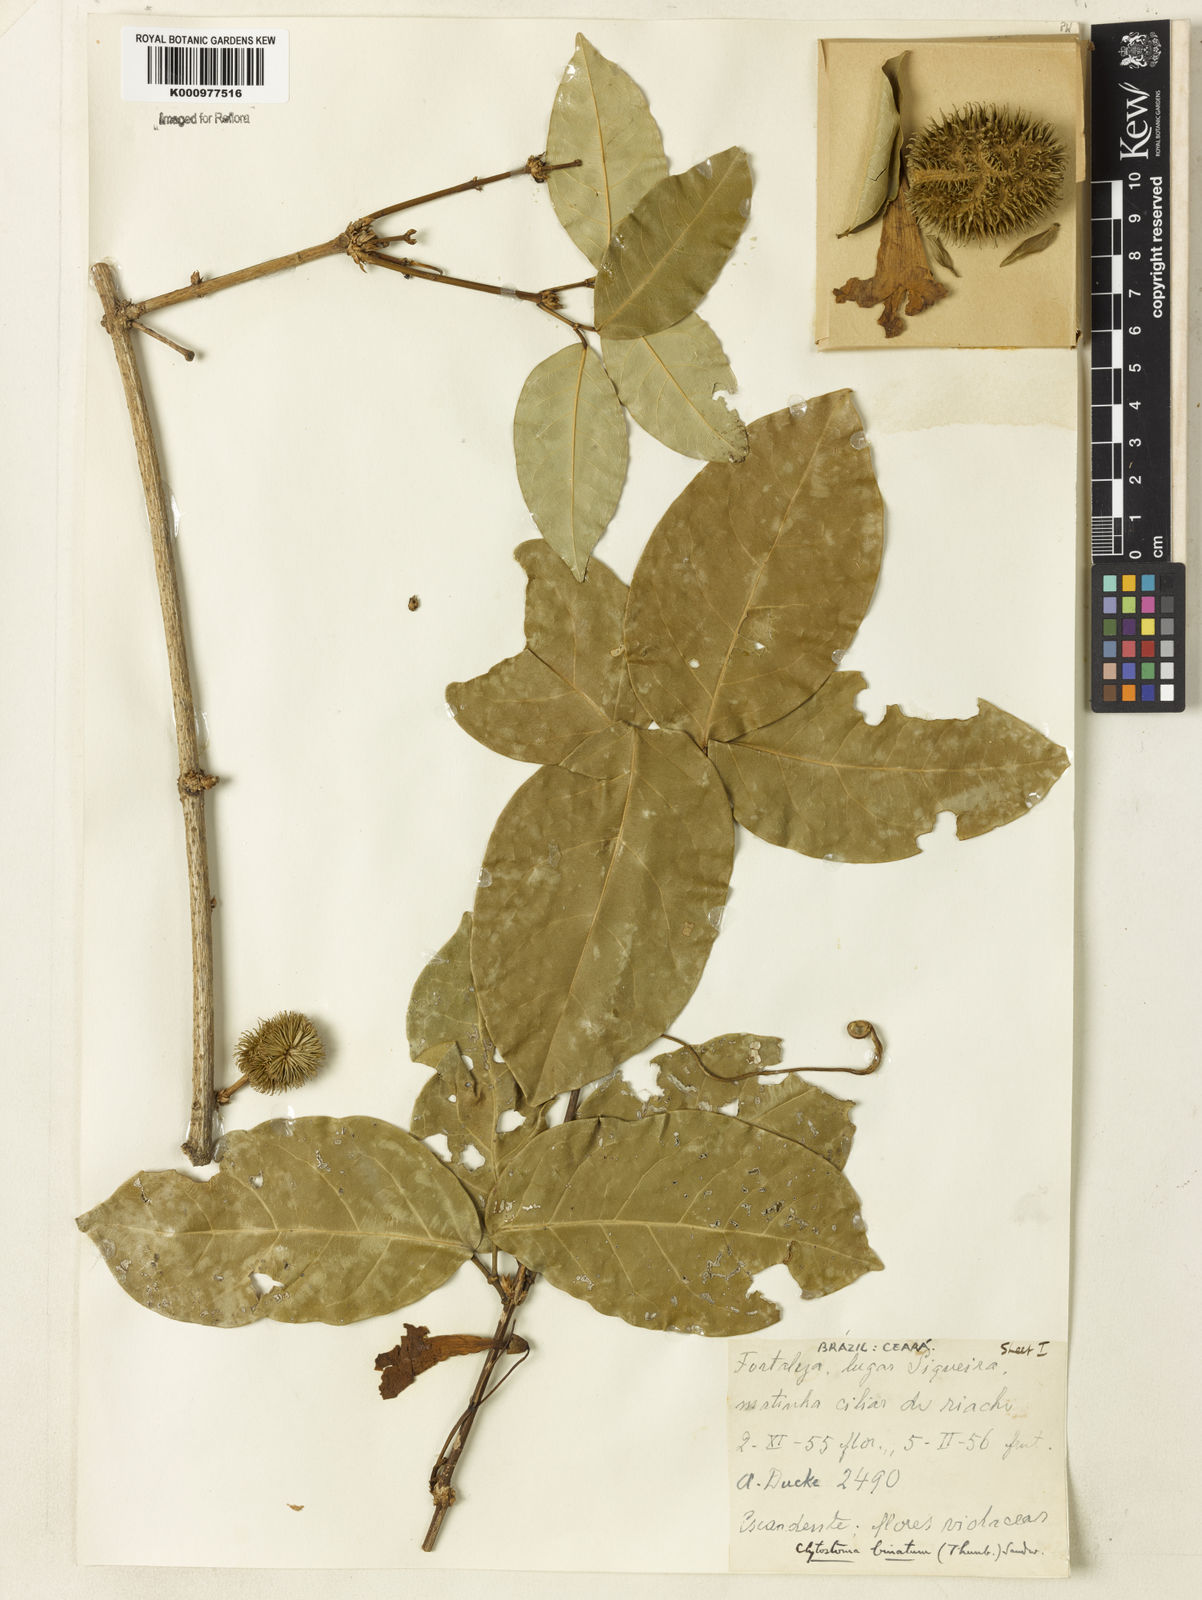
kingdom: Plantae
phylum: Tracheophyta
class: Magnoliopsida
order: Lamiales
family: Bignoniaceae
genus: Bignonia
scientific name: Bignonia binata
